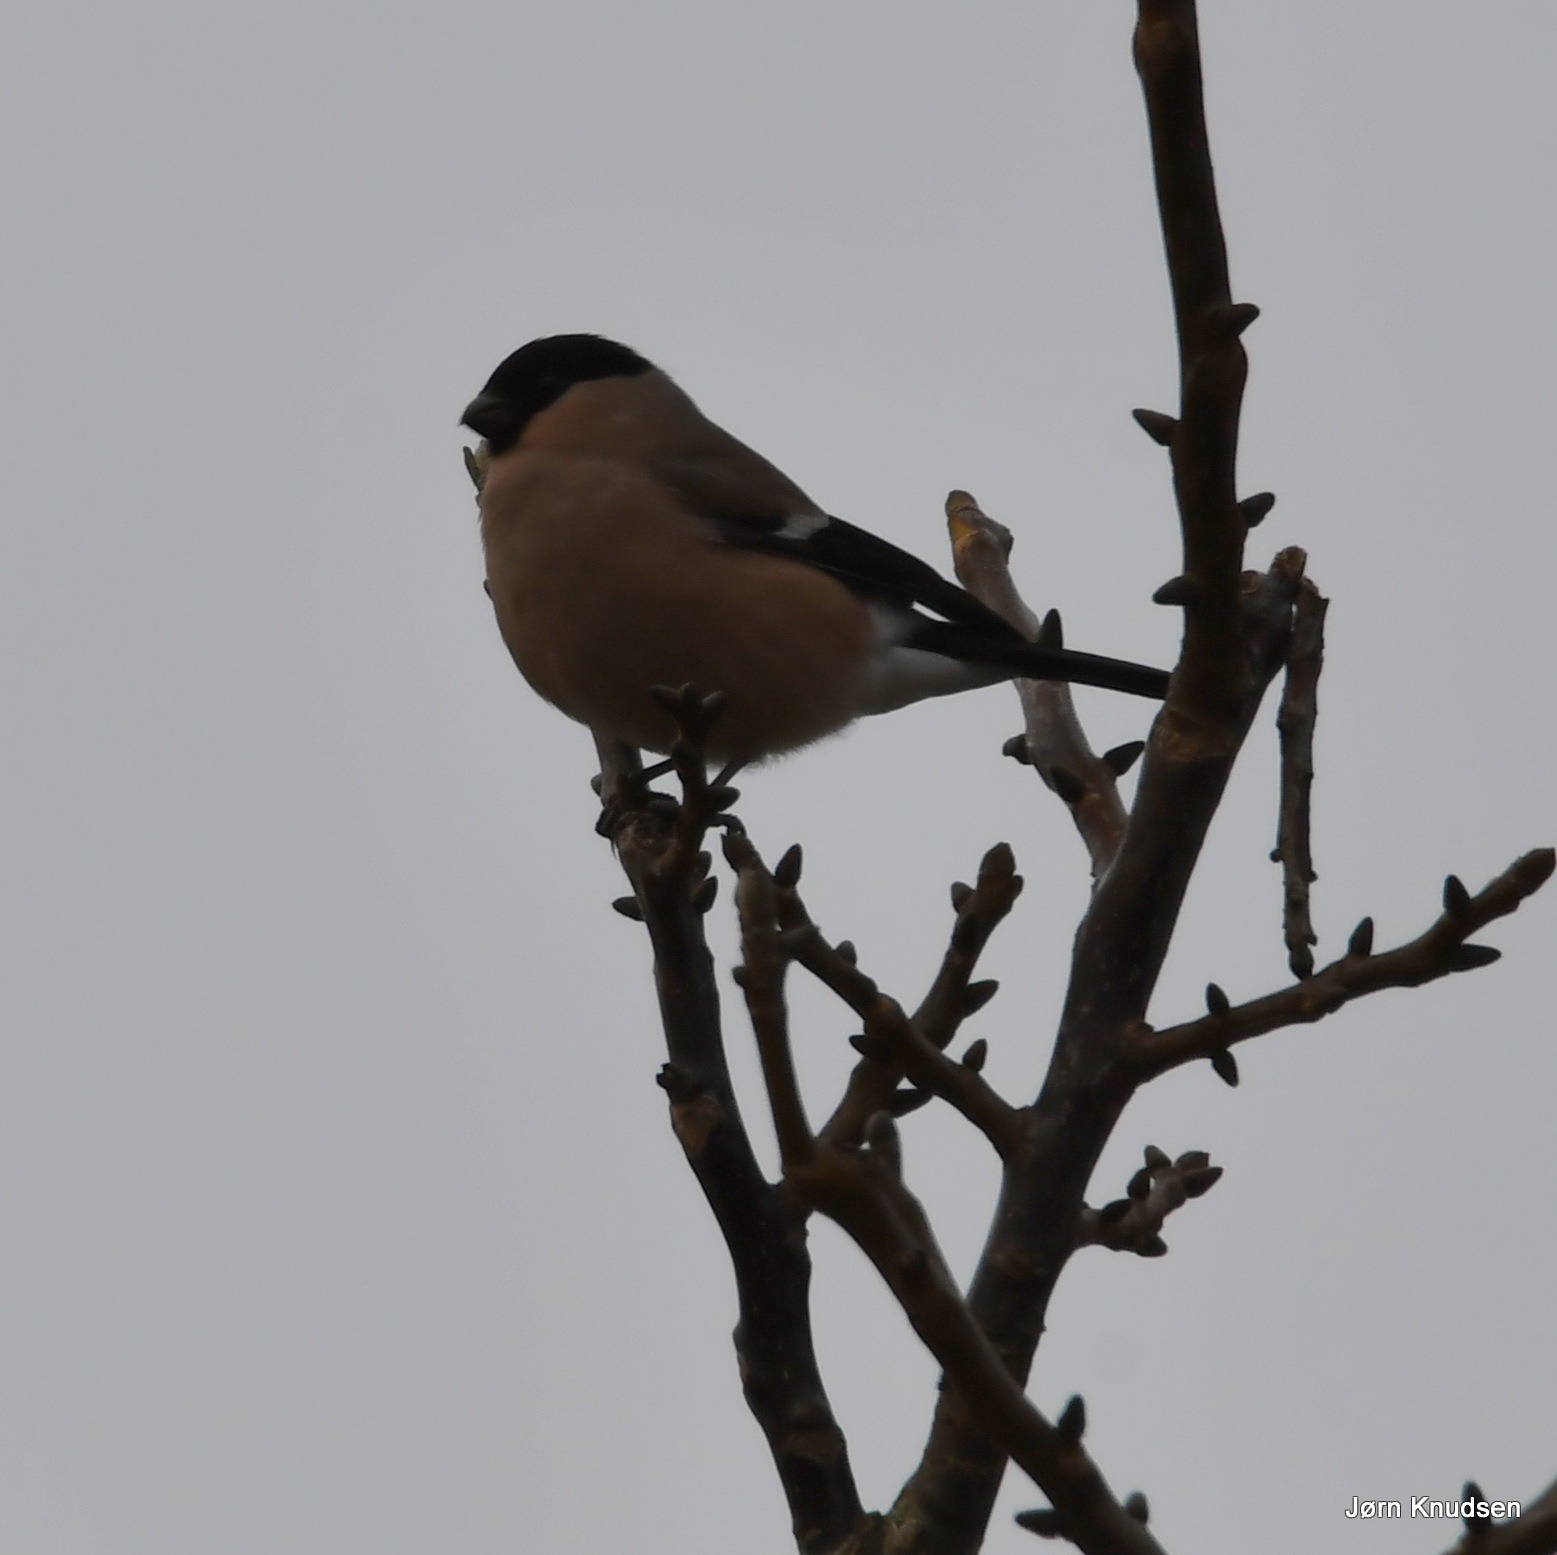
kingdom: Animalia
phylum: Chordata
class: Aves
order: Passeriformes
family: Fringillidae
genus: Pyrrhula
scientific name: Pyrrhula pyrrhula
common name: Dompap
